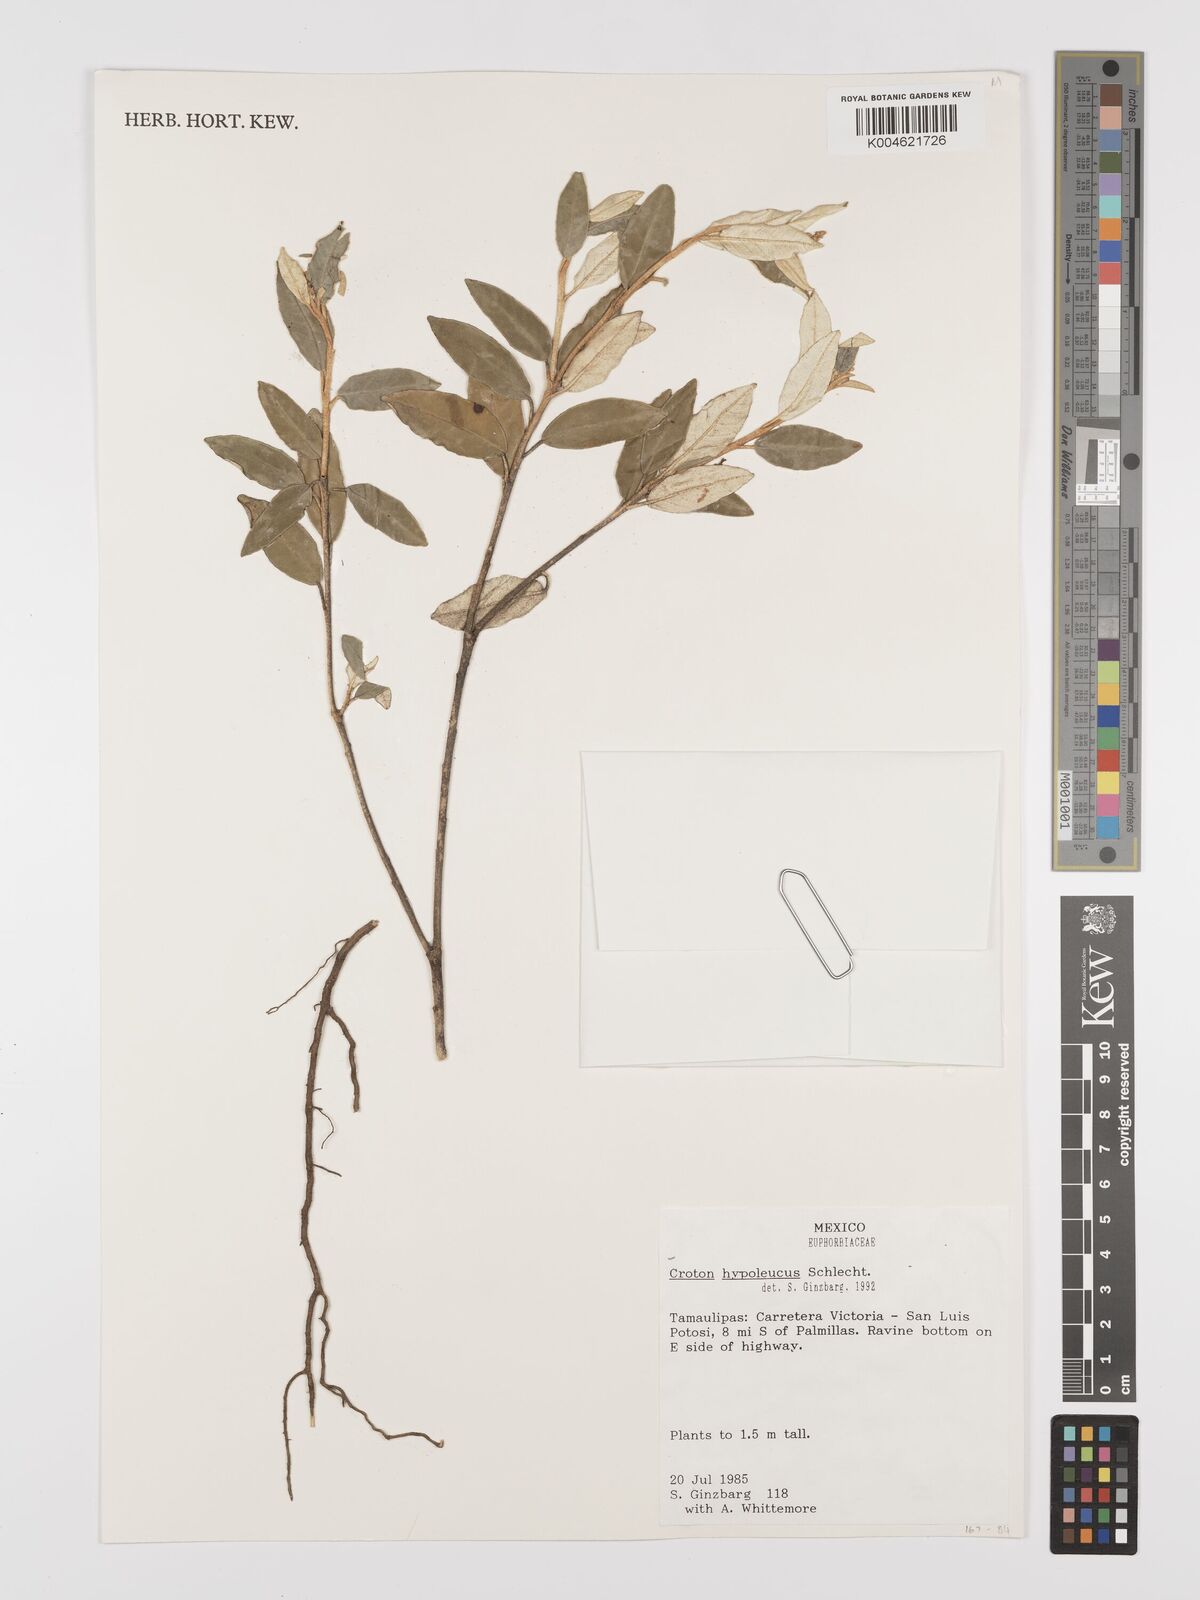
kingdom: Plantae
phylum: Tracheophyta
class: Magnoliopsida
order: Malpighiales
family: Euphorbiaceae
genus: Croton
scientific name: Croton
